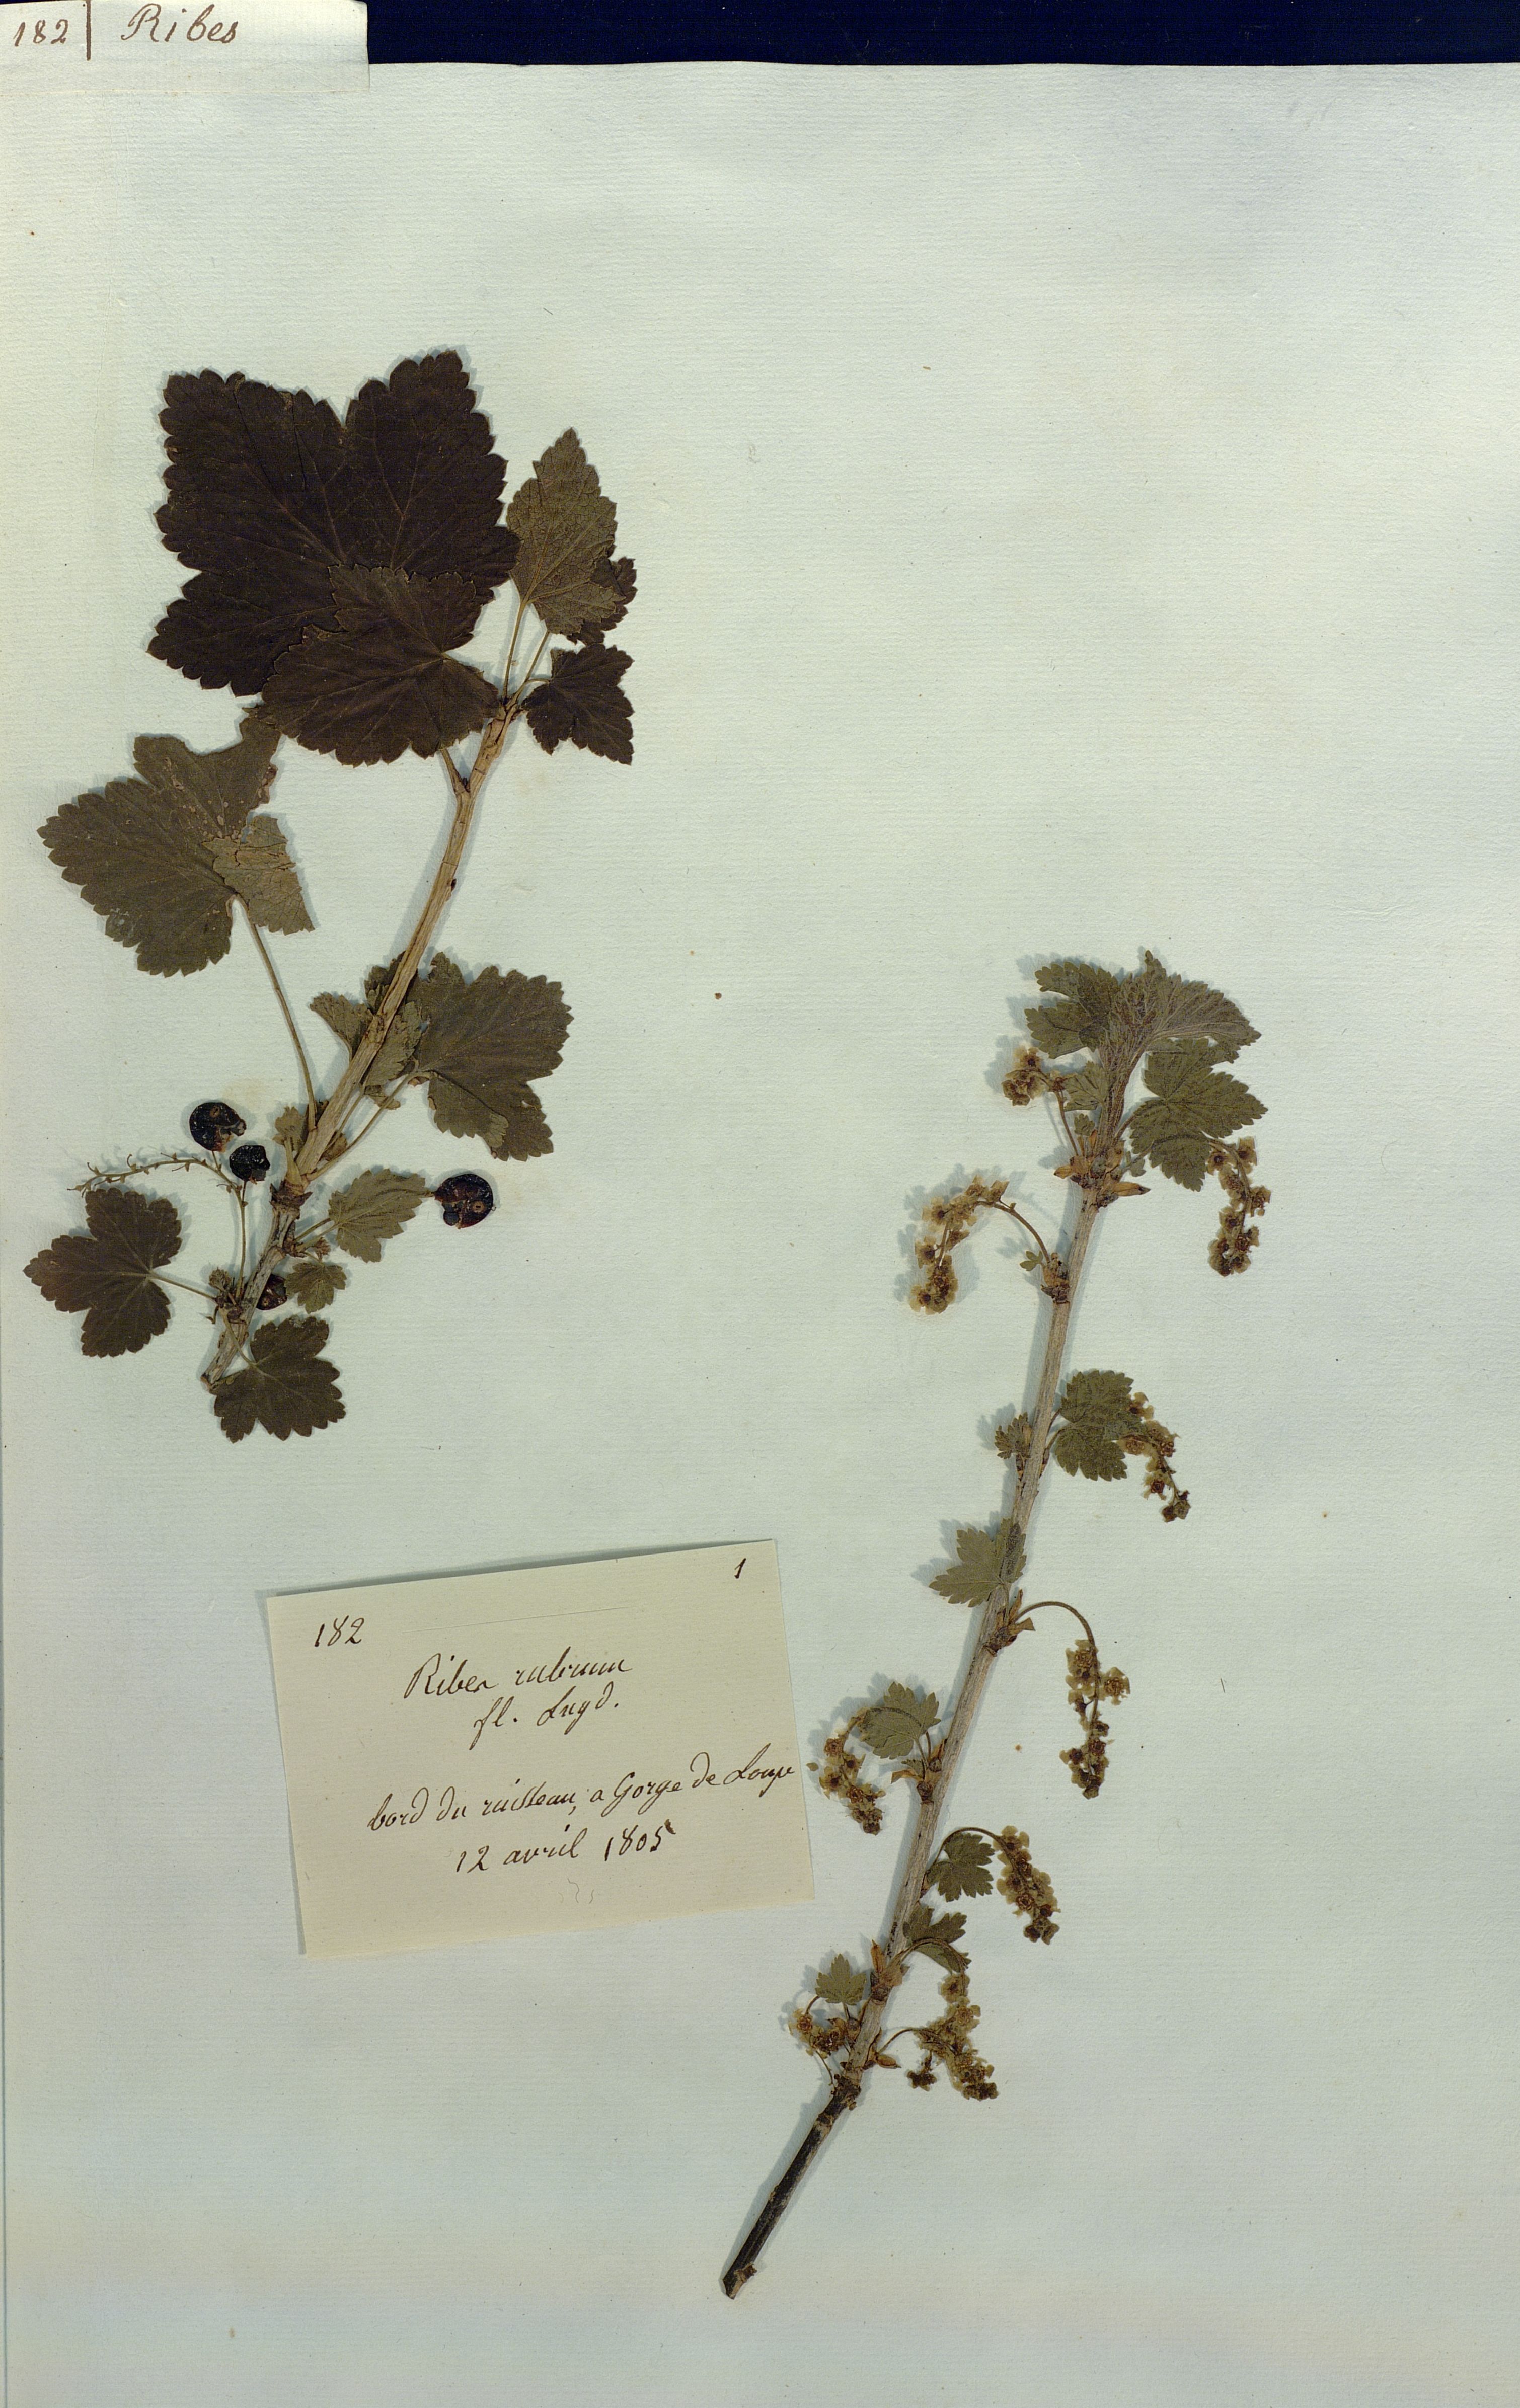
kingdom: Plantae
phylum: Tracheophyta
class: Magnoliopsida
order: Saxifragales
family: Grossulariaceae
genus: Ribes
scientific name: Ribes rubrum
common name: Red currant
